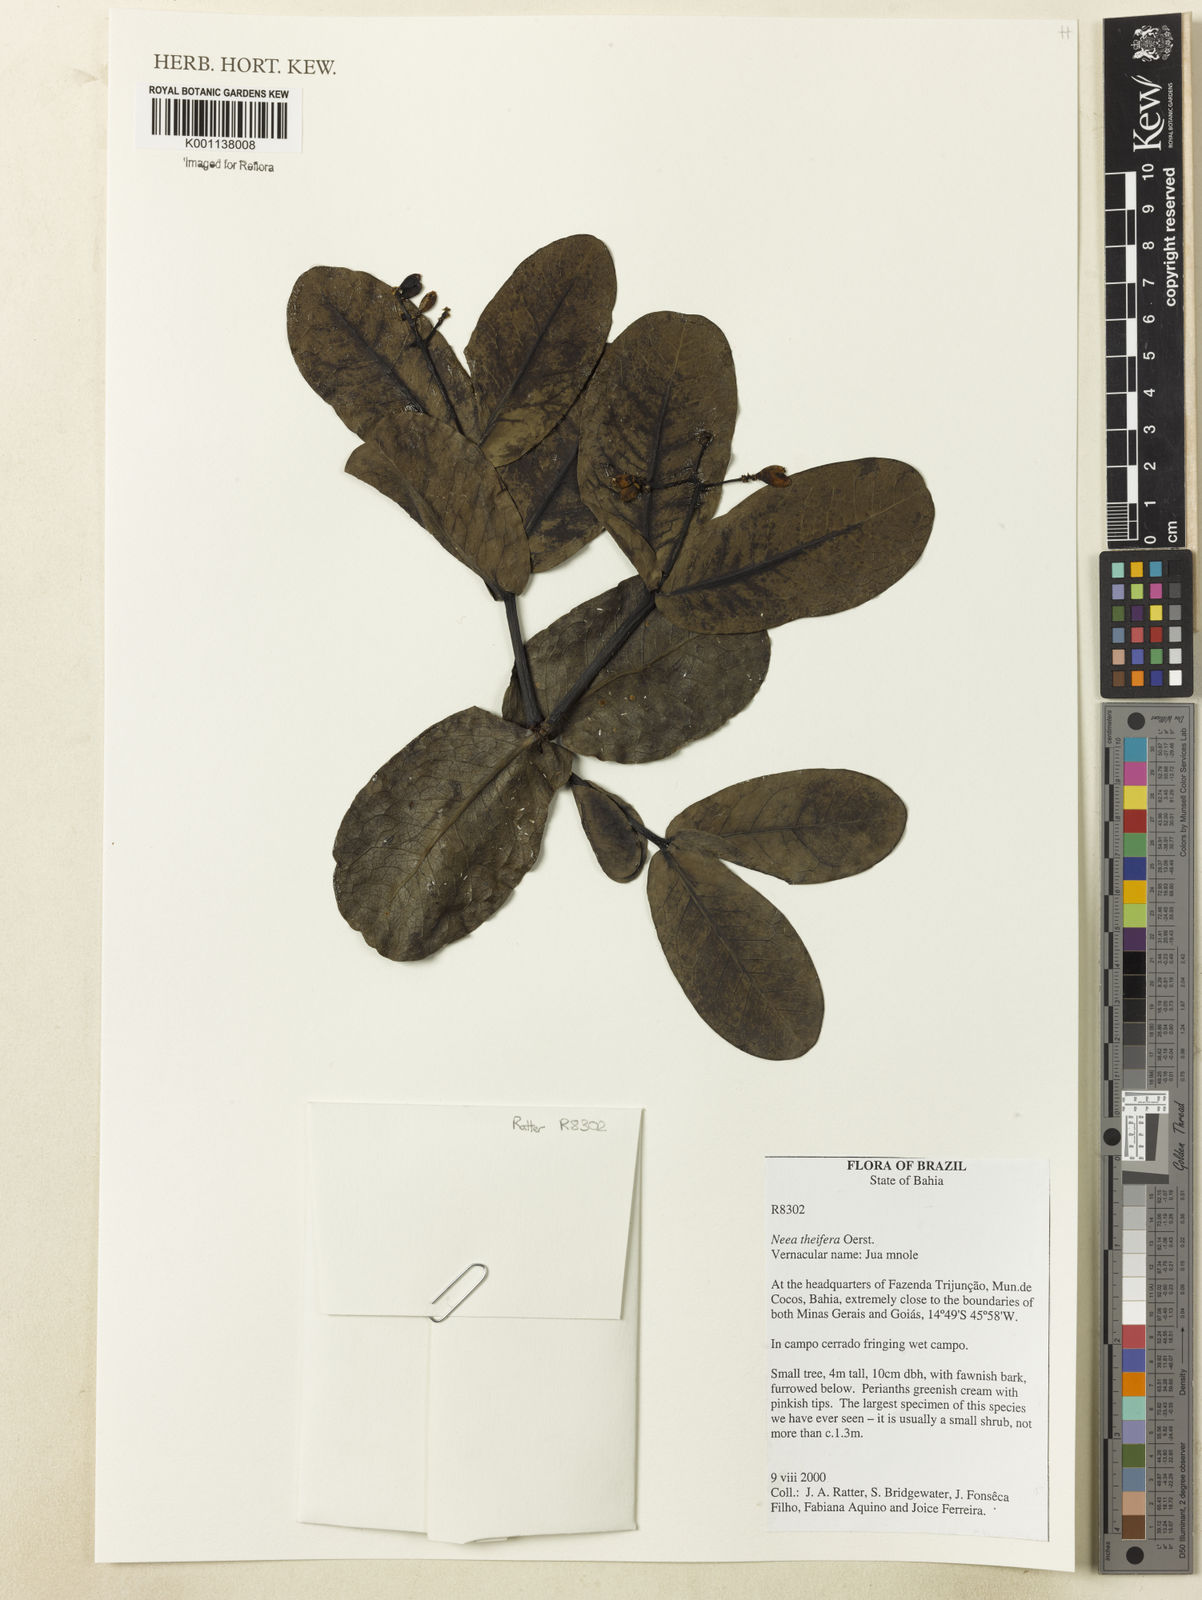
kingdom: Plantae
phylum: Tracheophyta
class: Magnoliopsida
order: Caryophyllales
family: Nyctaginaceae
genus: Neea
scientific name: Neea theifera
